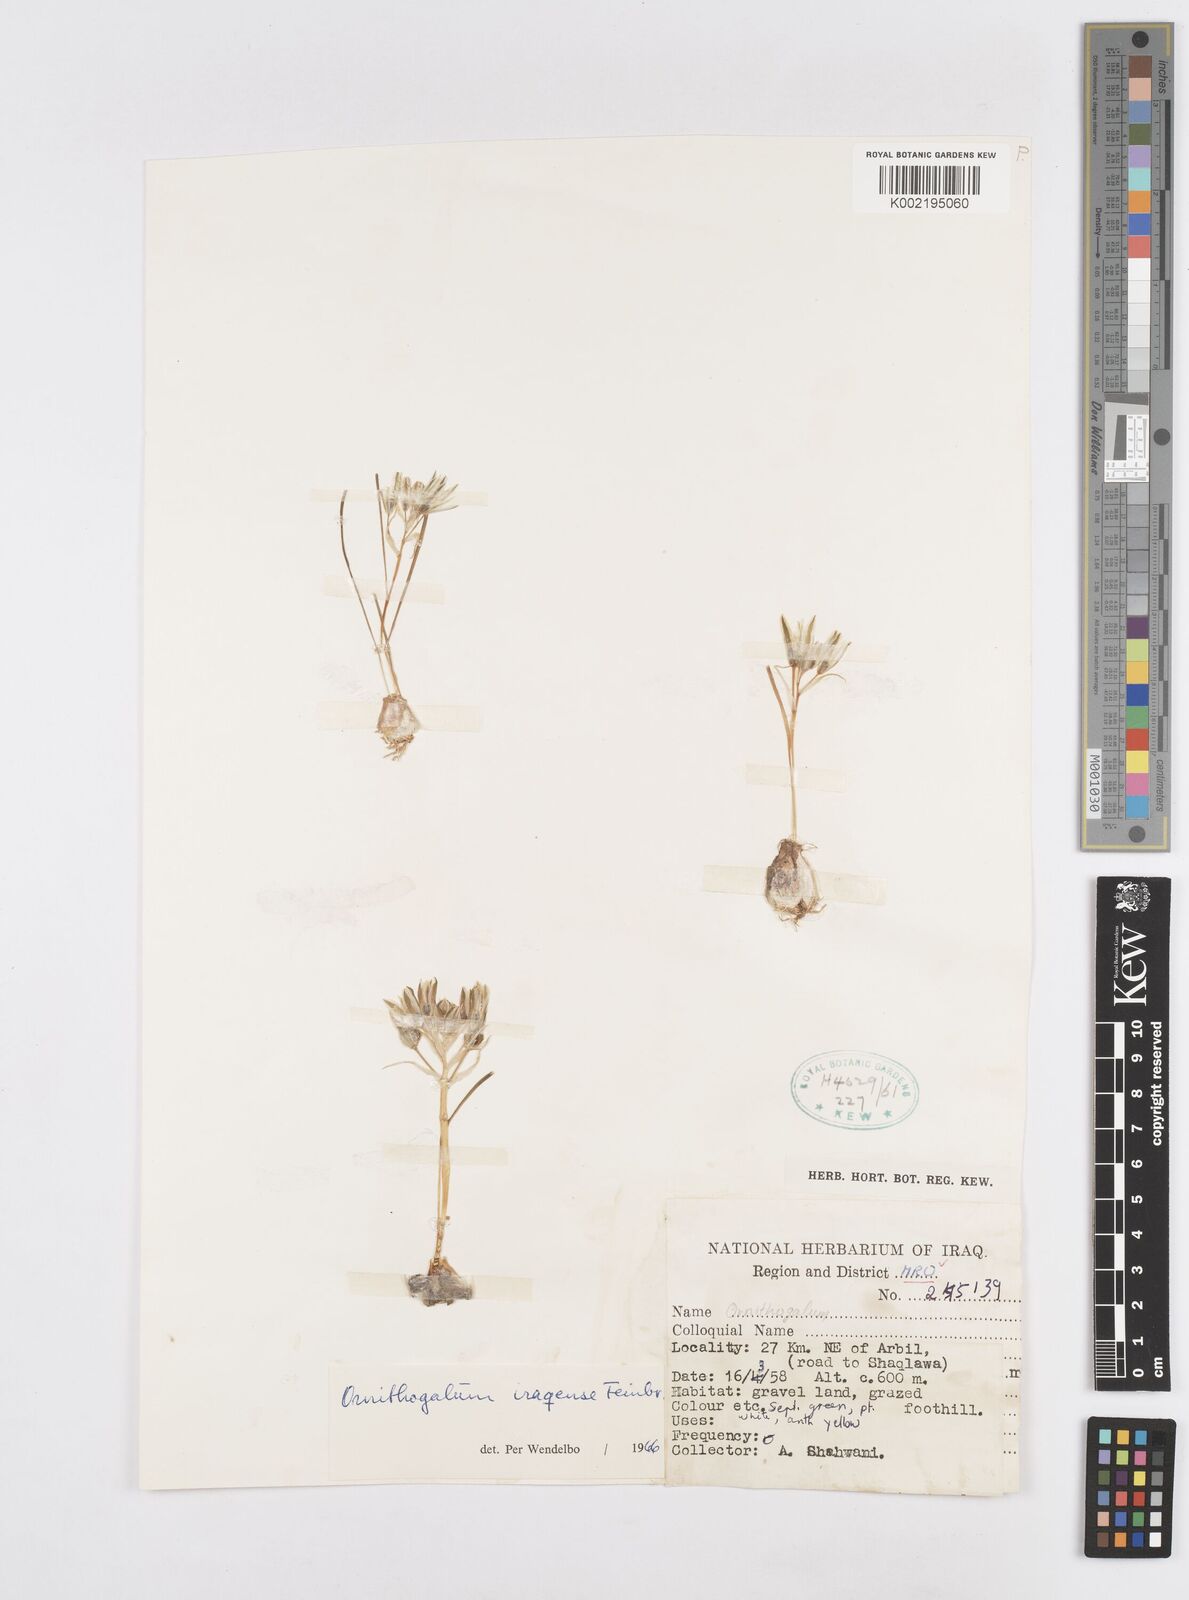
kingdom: Plantae
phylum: Tracheophyta
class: Liliopsida
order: Asparagales
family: Asparagaceae
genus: Ornithogalum
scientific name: Ornithogalum iraqense
